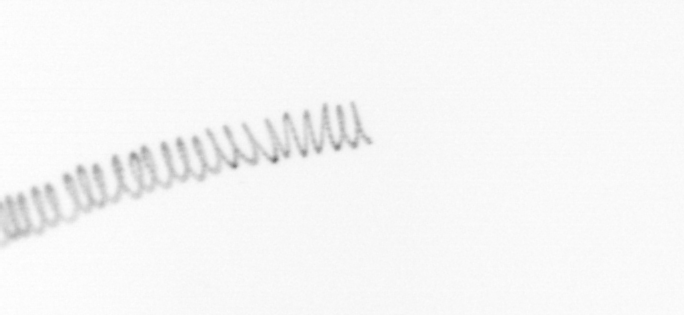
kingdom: Chromista
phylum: Ochrophyta
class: Bacillariophyceae
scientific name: Bacillariophyceae
